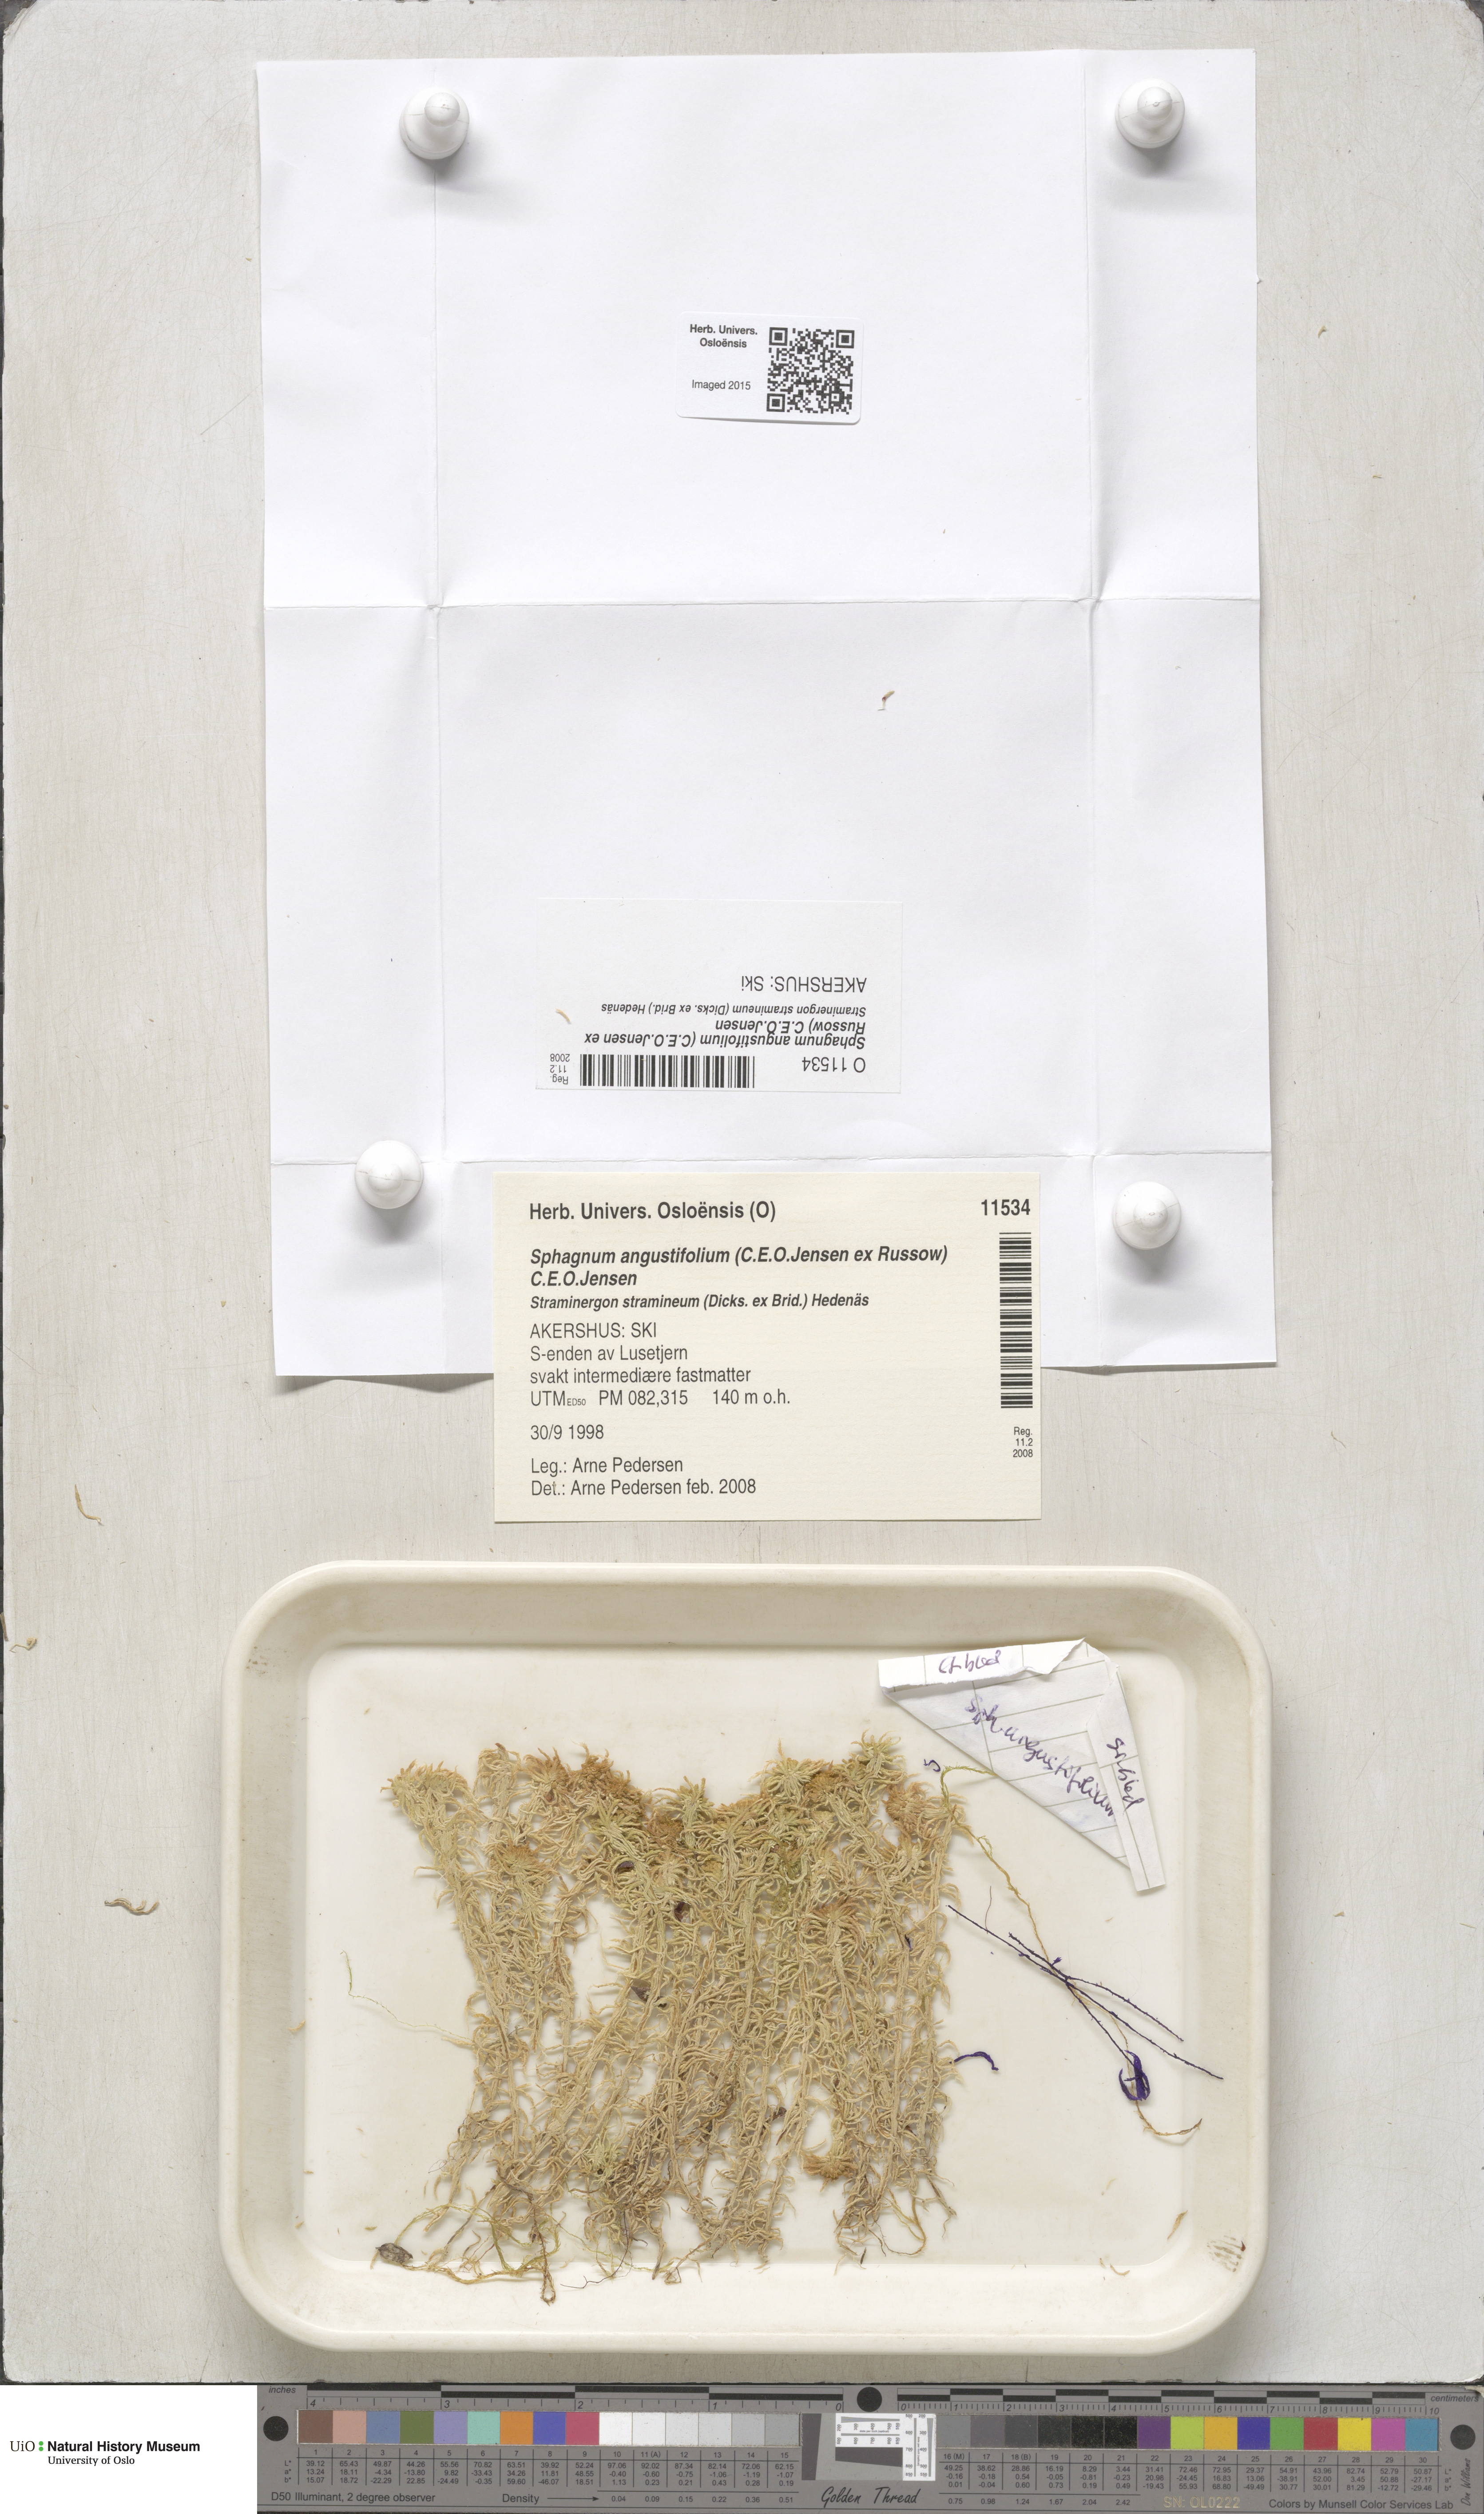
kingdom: Plantae
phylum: Bryophyta
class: Sphagnopsida
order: Sphagnales
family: Sphagnaceae
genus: Sphagnum
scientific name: Sphagnum angustifolium
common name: Narrow-leaved peat moss
